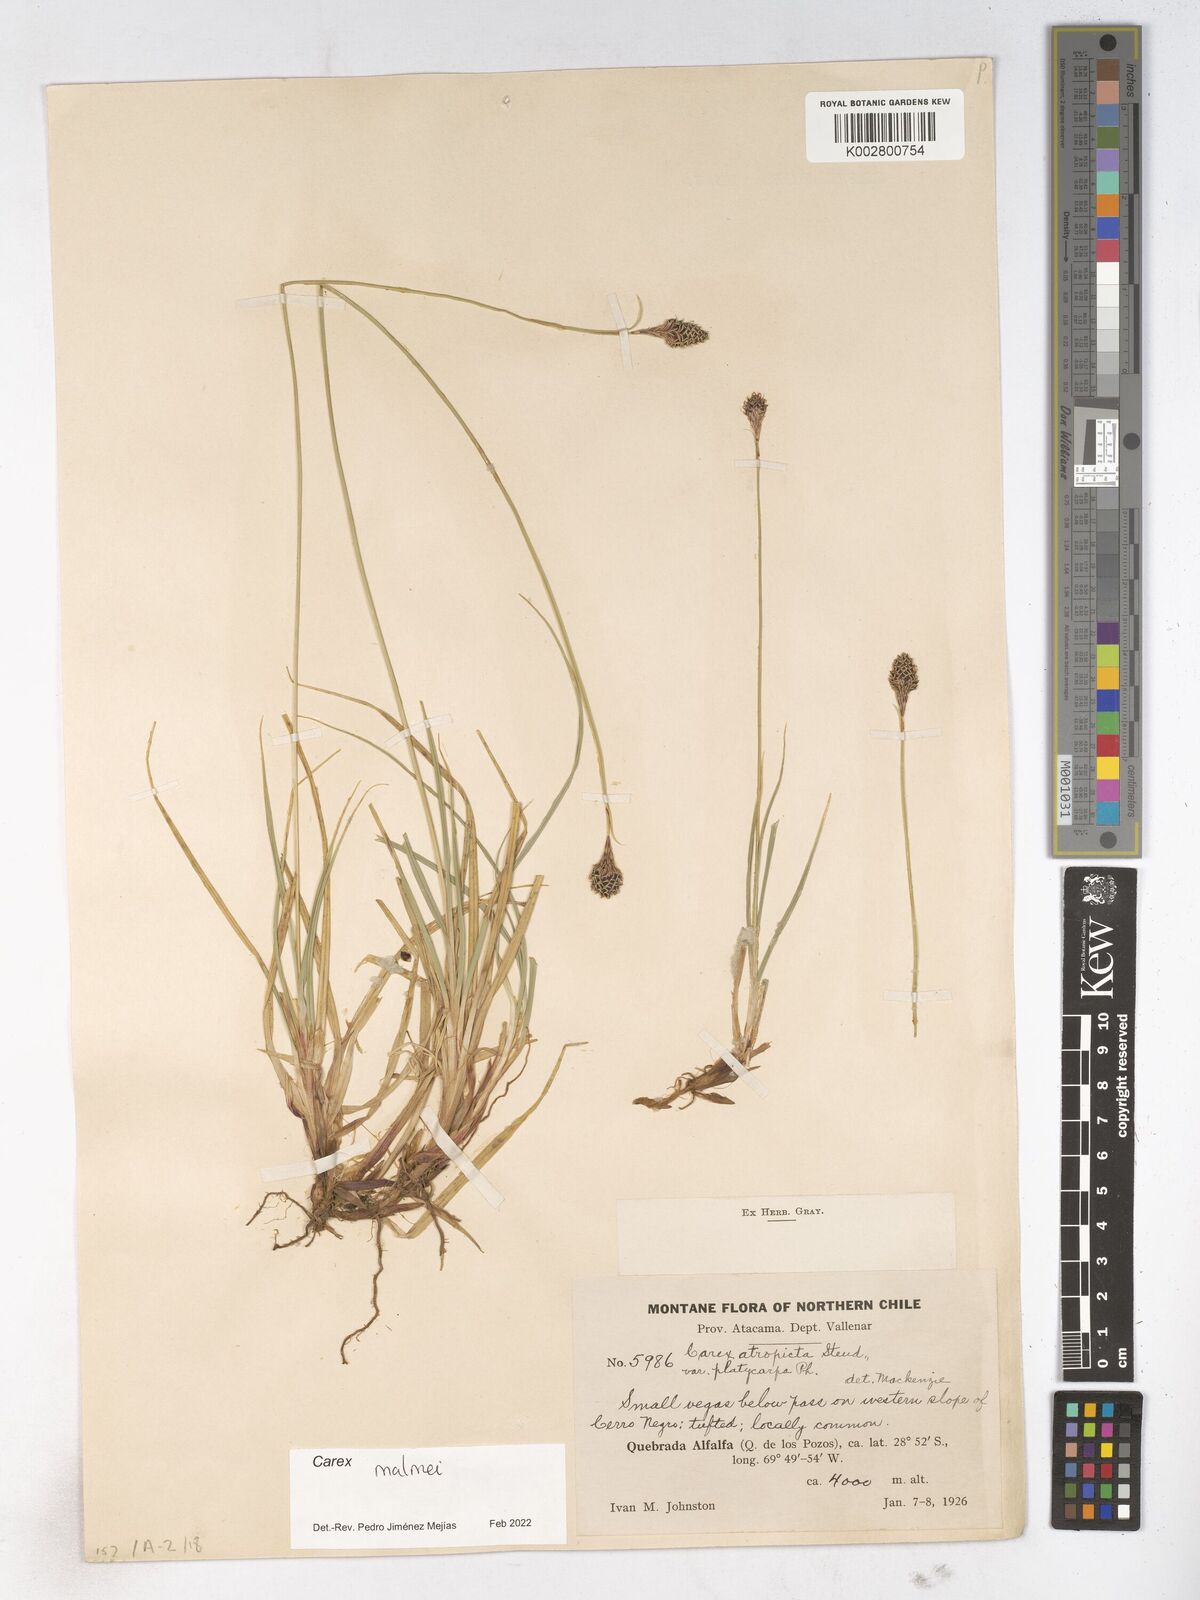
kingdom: Plantae
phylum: Tracheophyta
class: Liliopsida
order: Poales
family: Cyperaceae
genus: Carex
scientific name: Carex malmei
